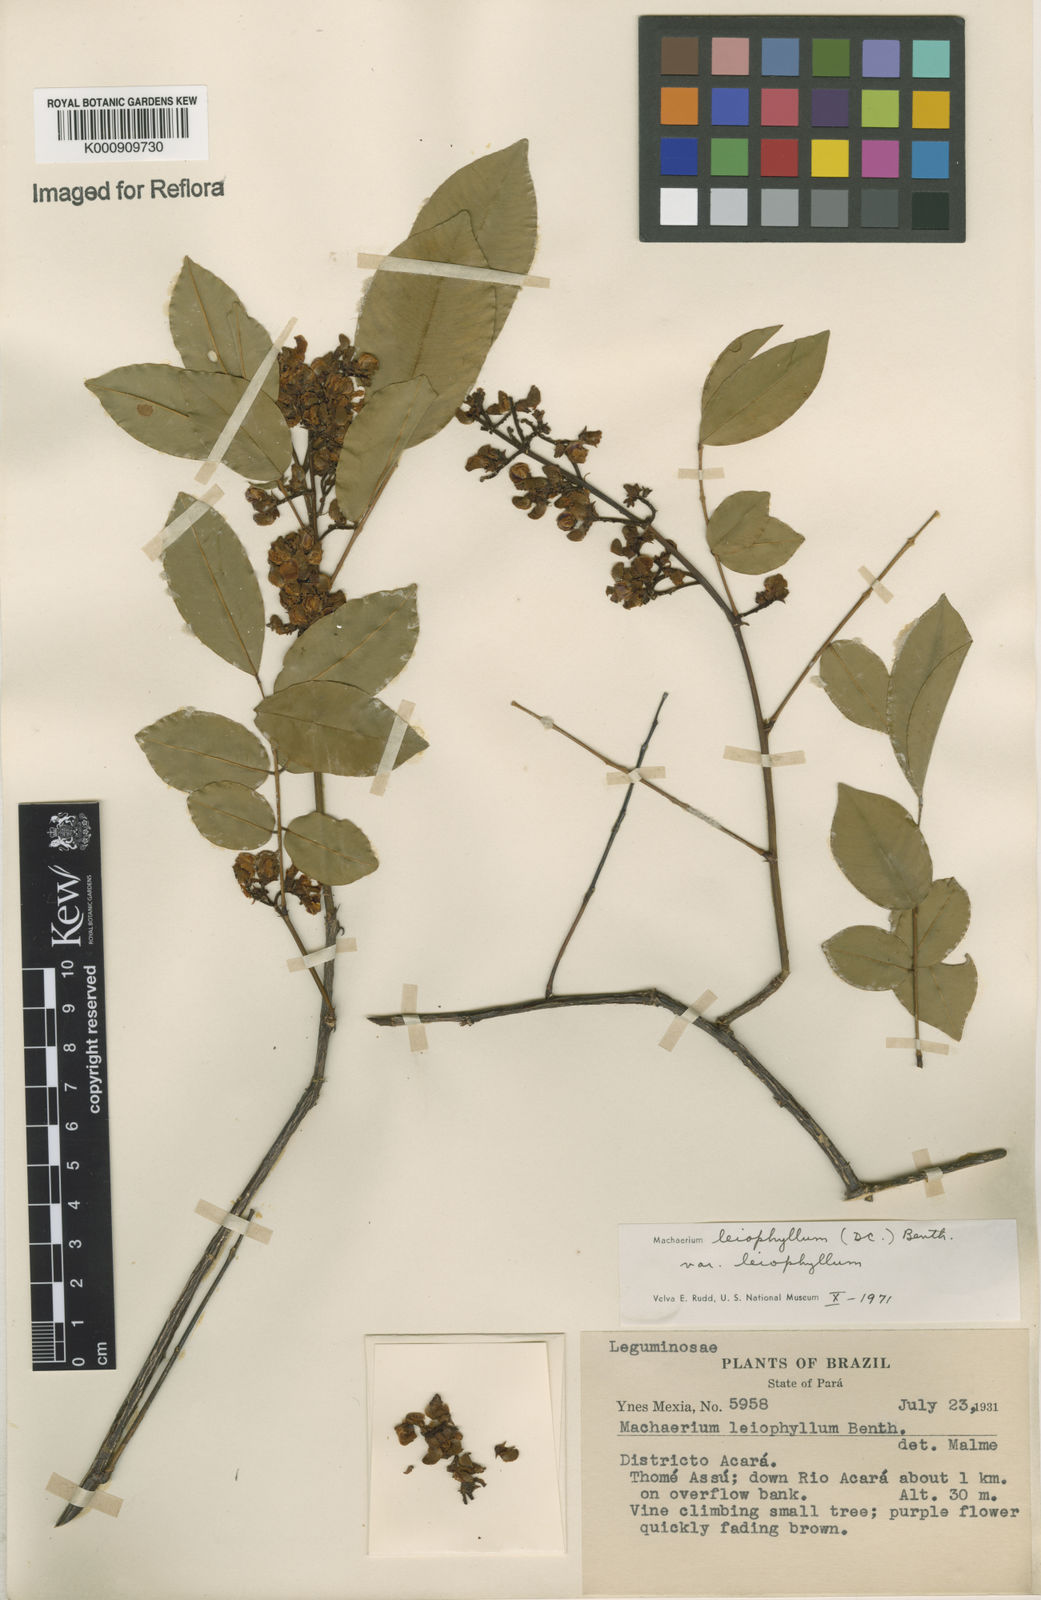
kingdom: Plantae
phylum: Tracheophyta
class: Magnoliopsida
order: Fabales
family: Fabaceae
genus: Machaerium
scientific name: Machaerium leiophyllum
